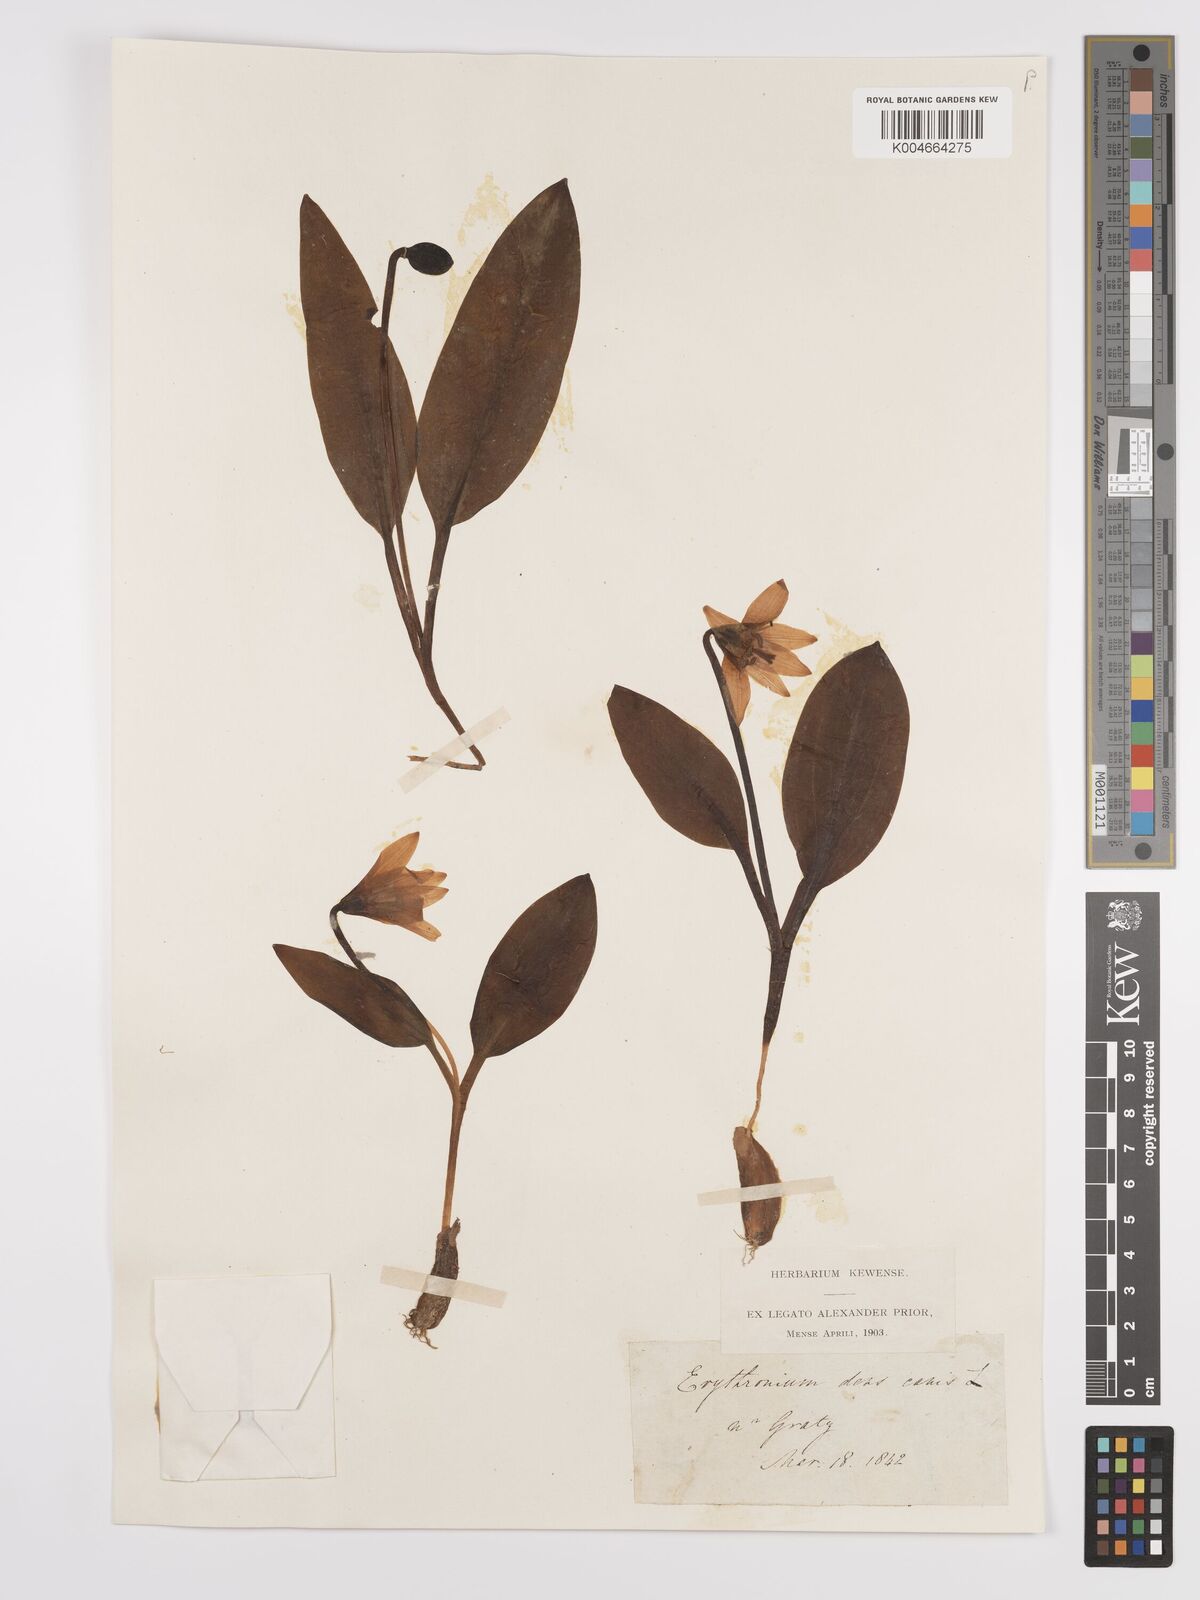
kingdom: Plantae
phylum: Tracheophyta
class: Liliopsida
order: Liliales
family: Liliaceae
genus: Erythronium
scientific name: Erythronium dens-canis
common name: Dog's-tooth-violet
